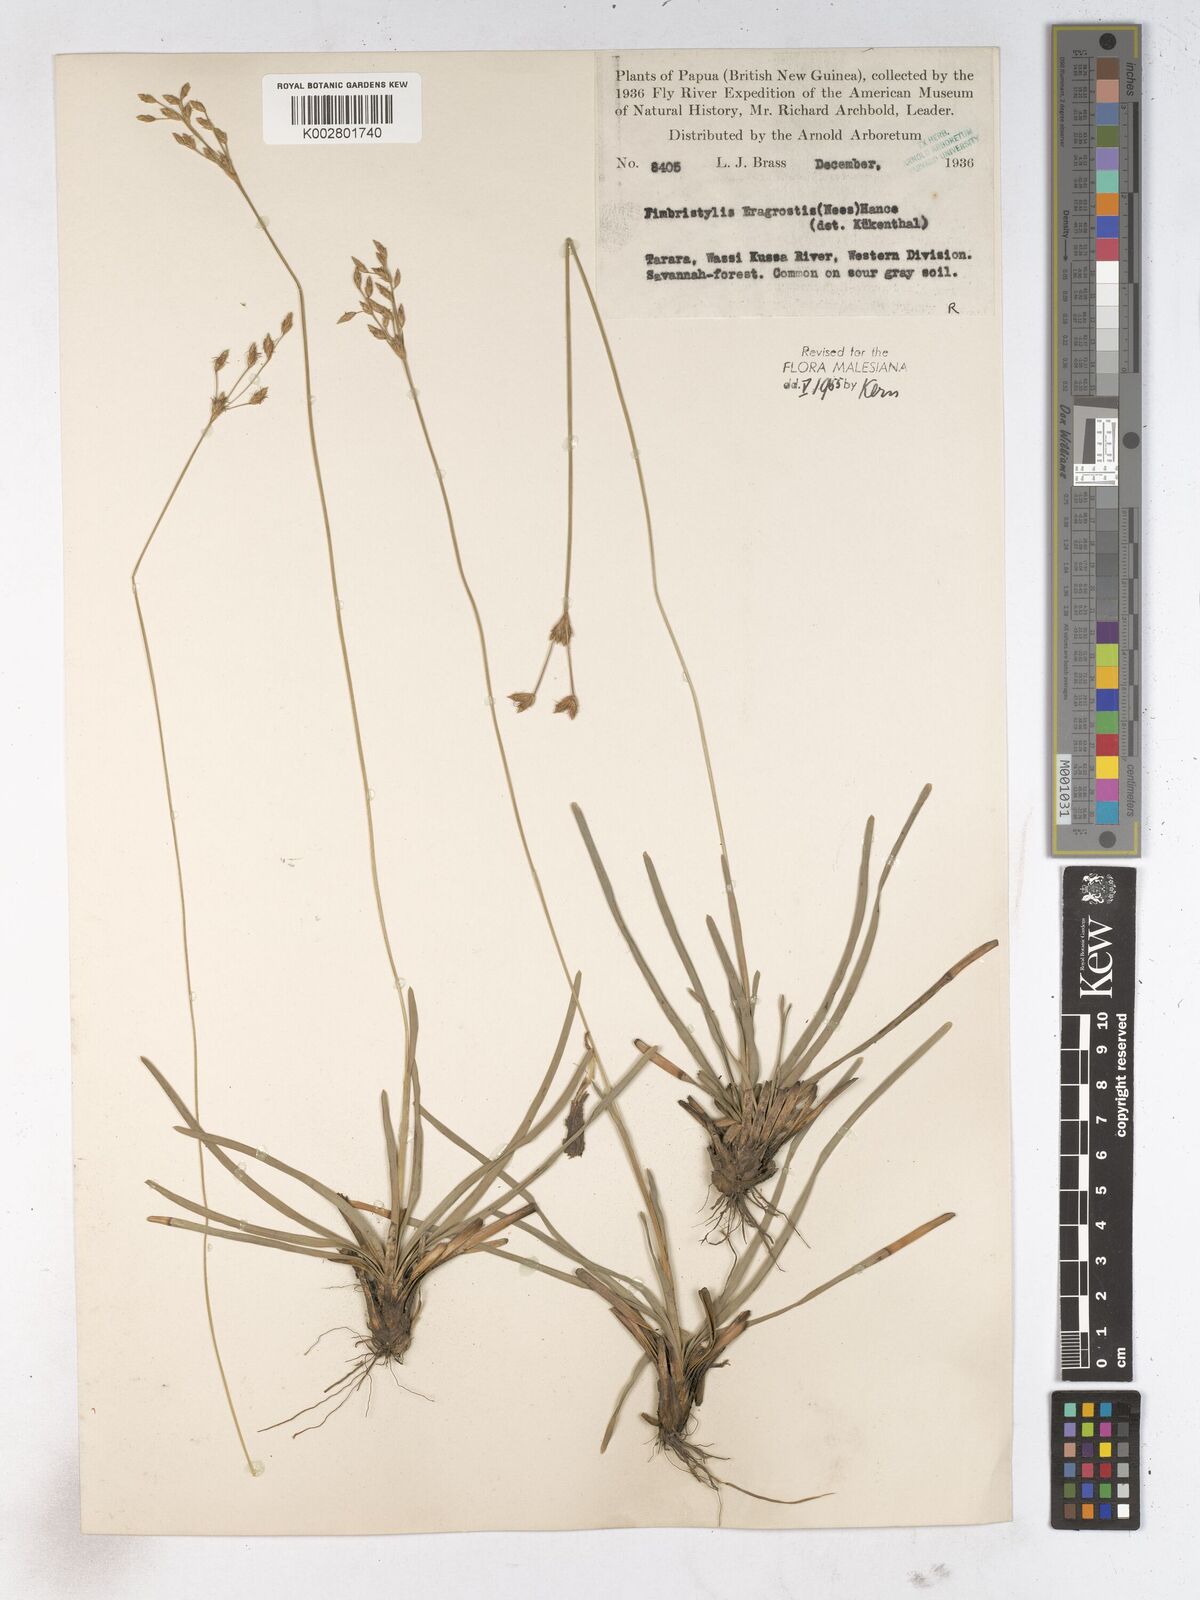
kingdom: Plantae
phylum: Tracheophyta
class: Liliopsida
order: Poales
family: Cyperaceae
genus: Fimbristylis
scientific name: Fimbristylis eragrostis
